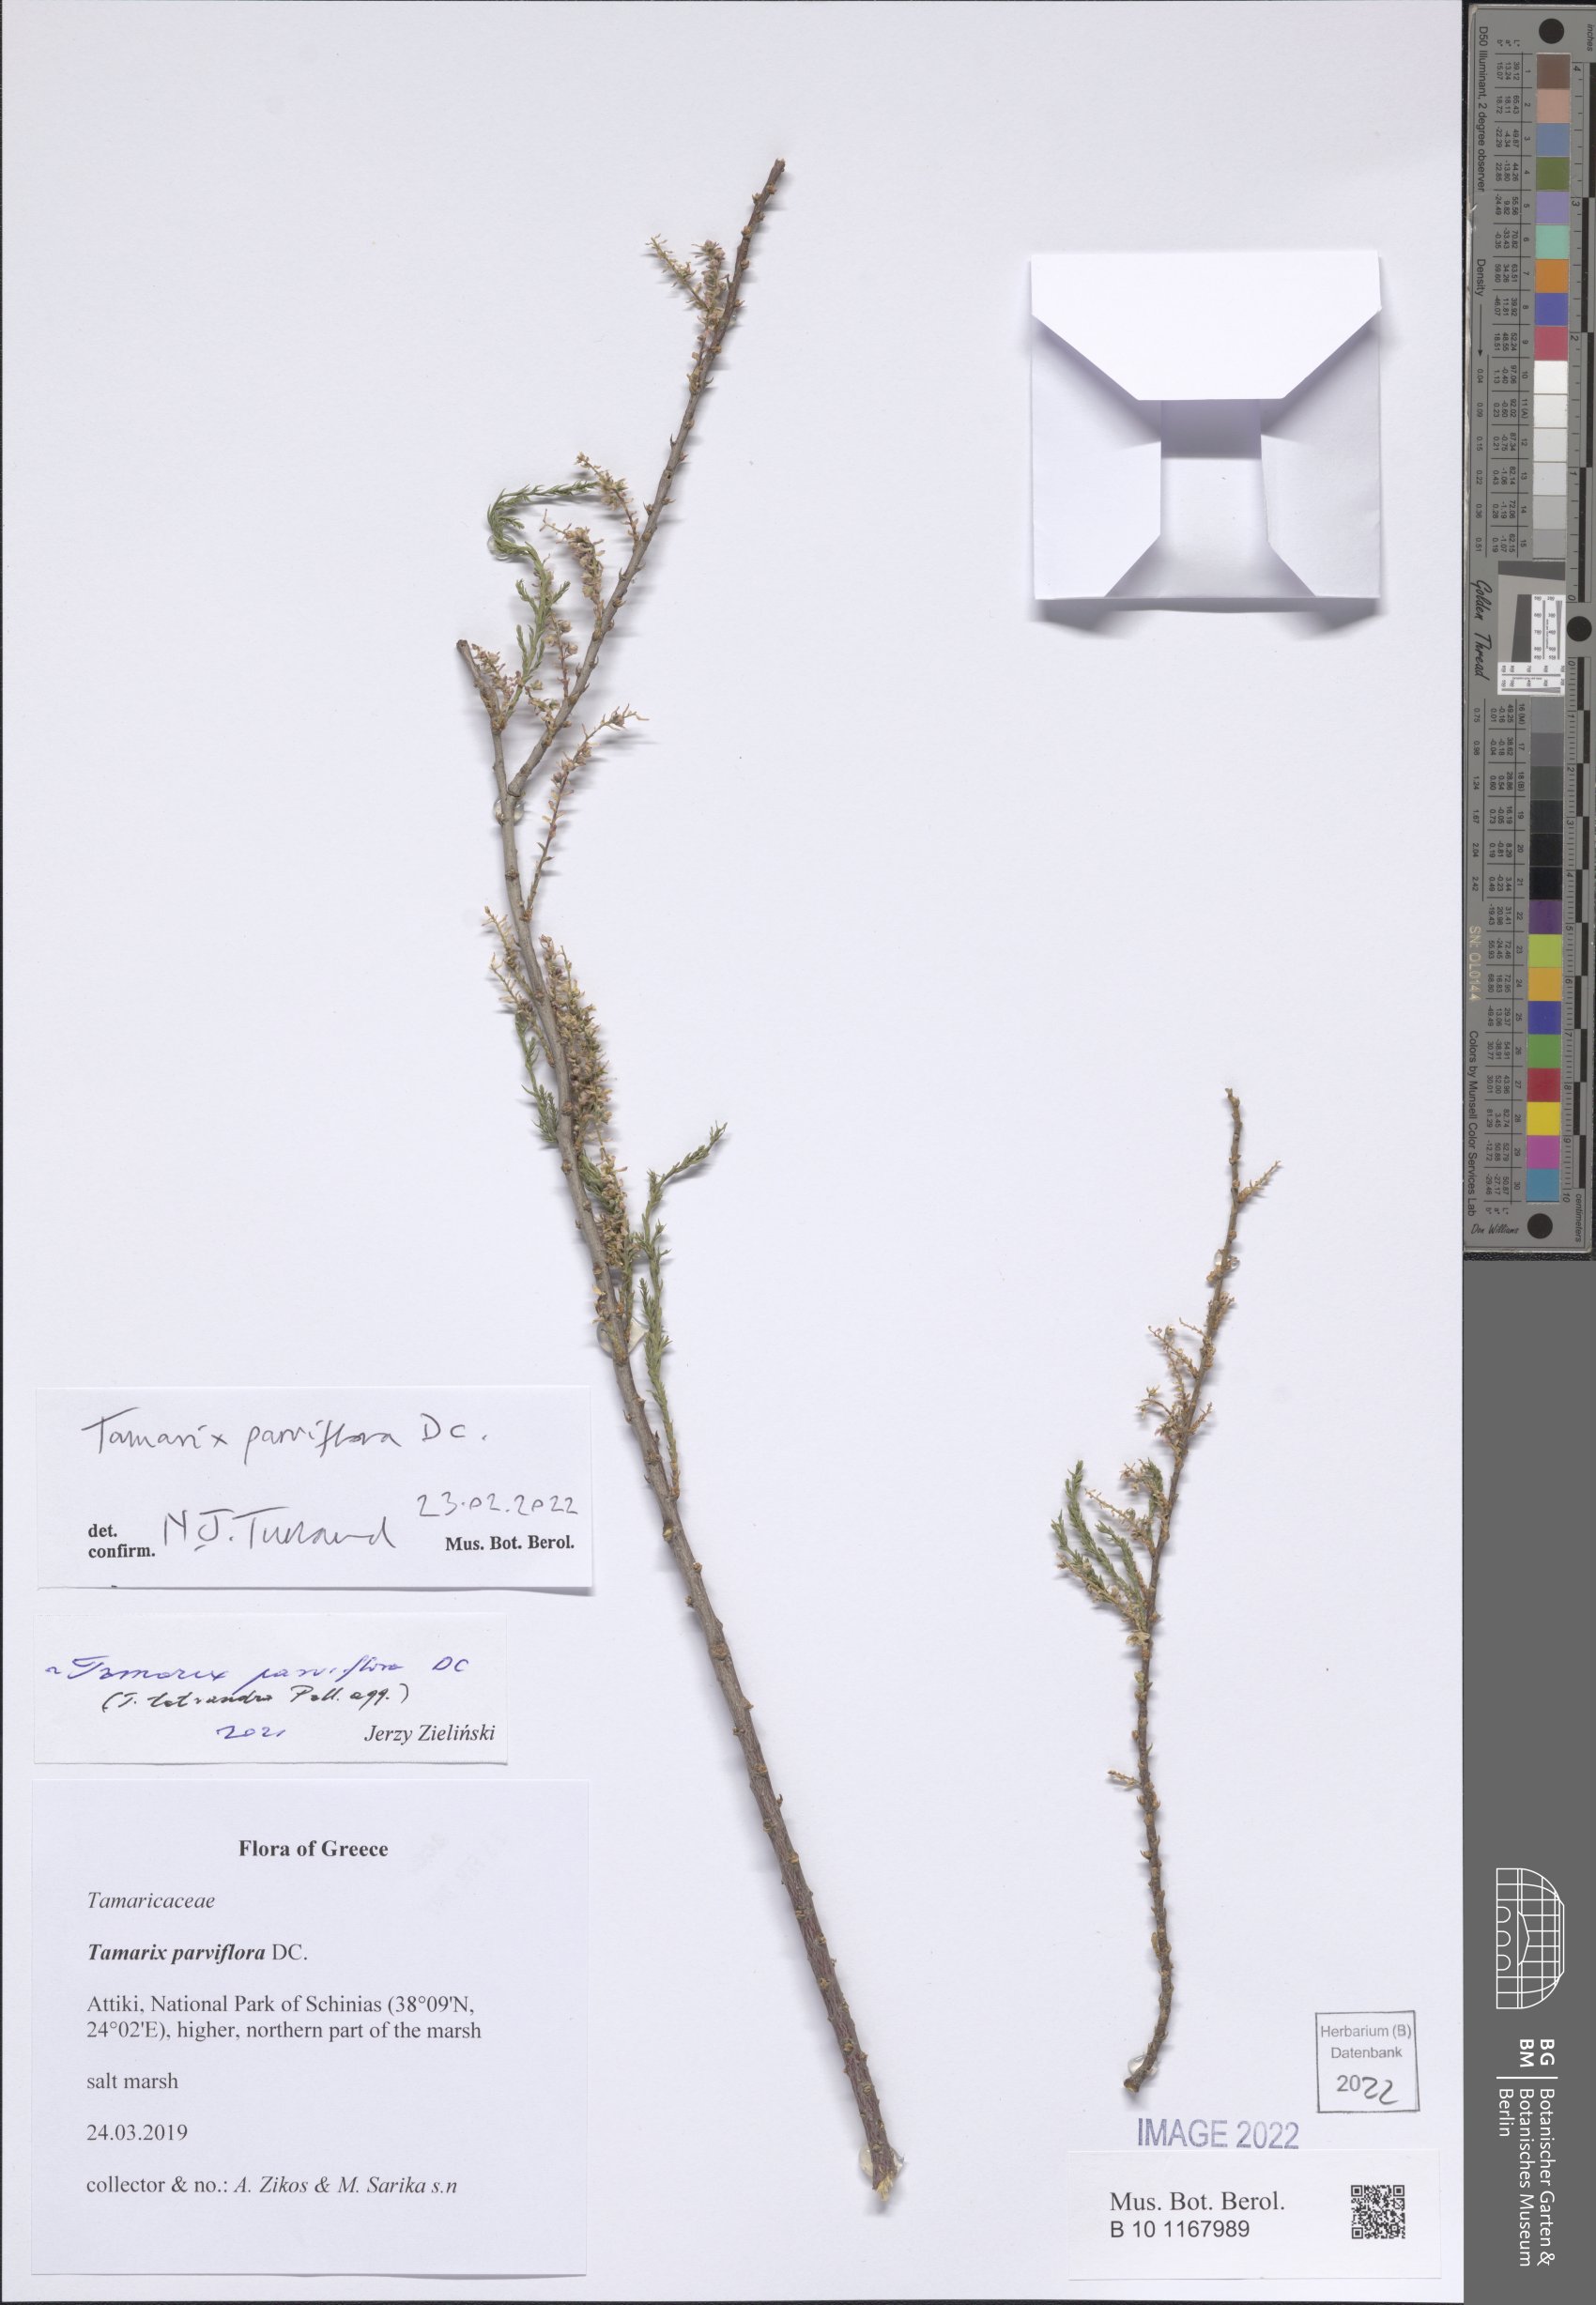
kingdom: Plantae
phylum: Tracheophyta
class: Magnoliopsida
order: Caryophyllales
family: Tamaricaceae
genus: Tamarix
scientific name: Tamarix parviflora
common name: Smallflower tamarisk
